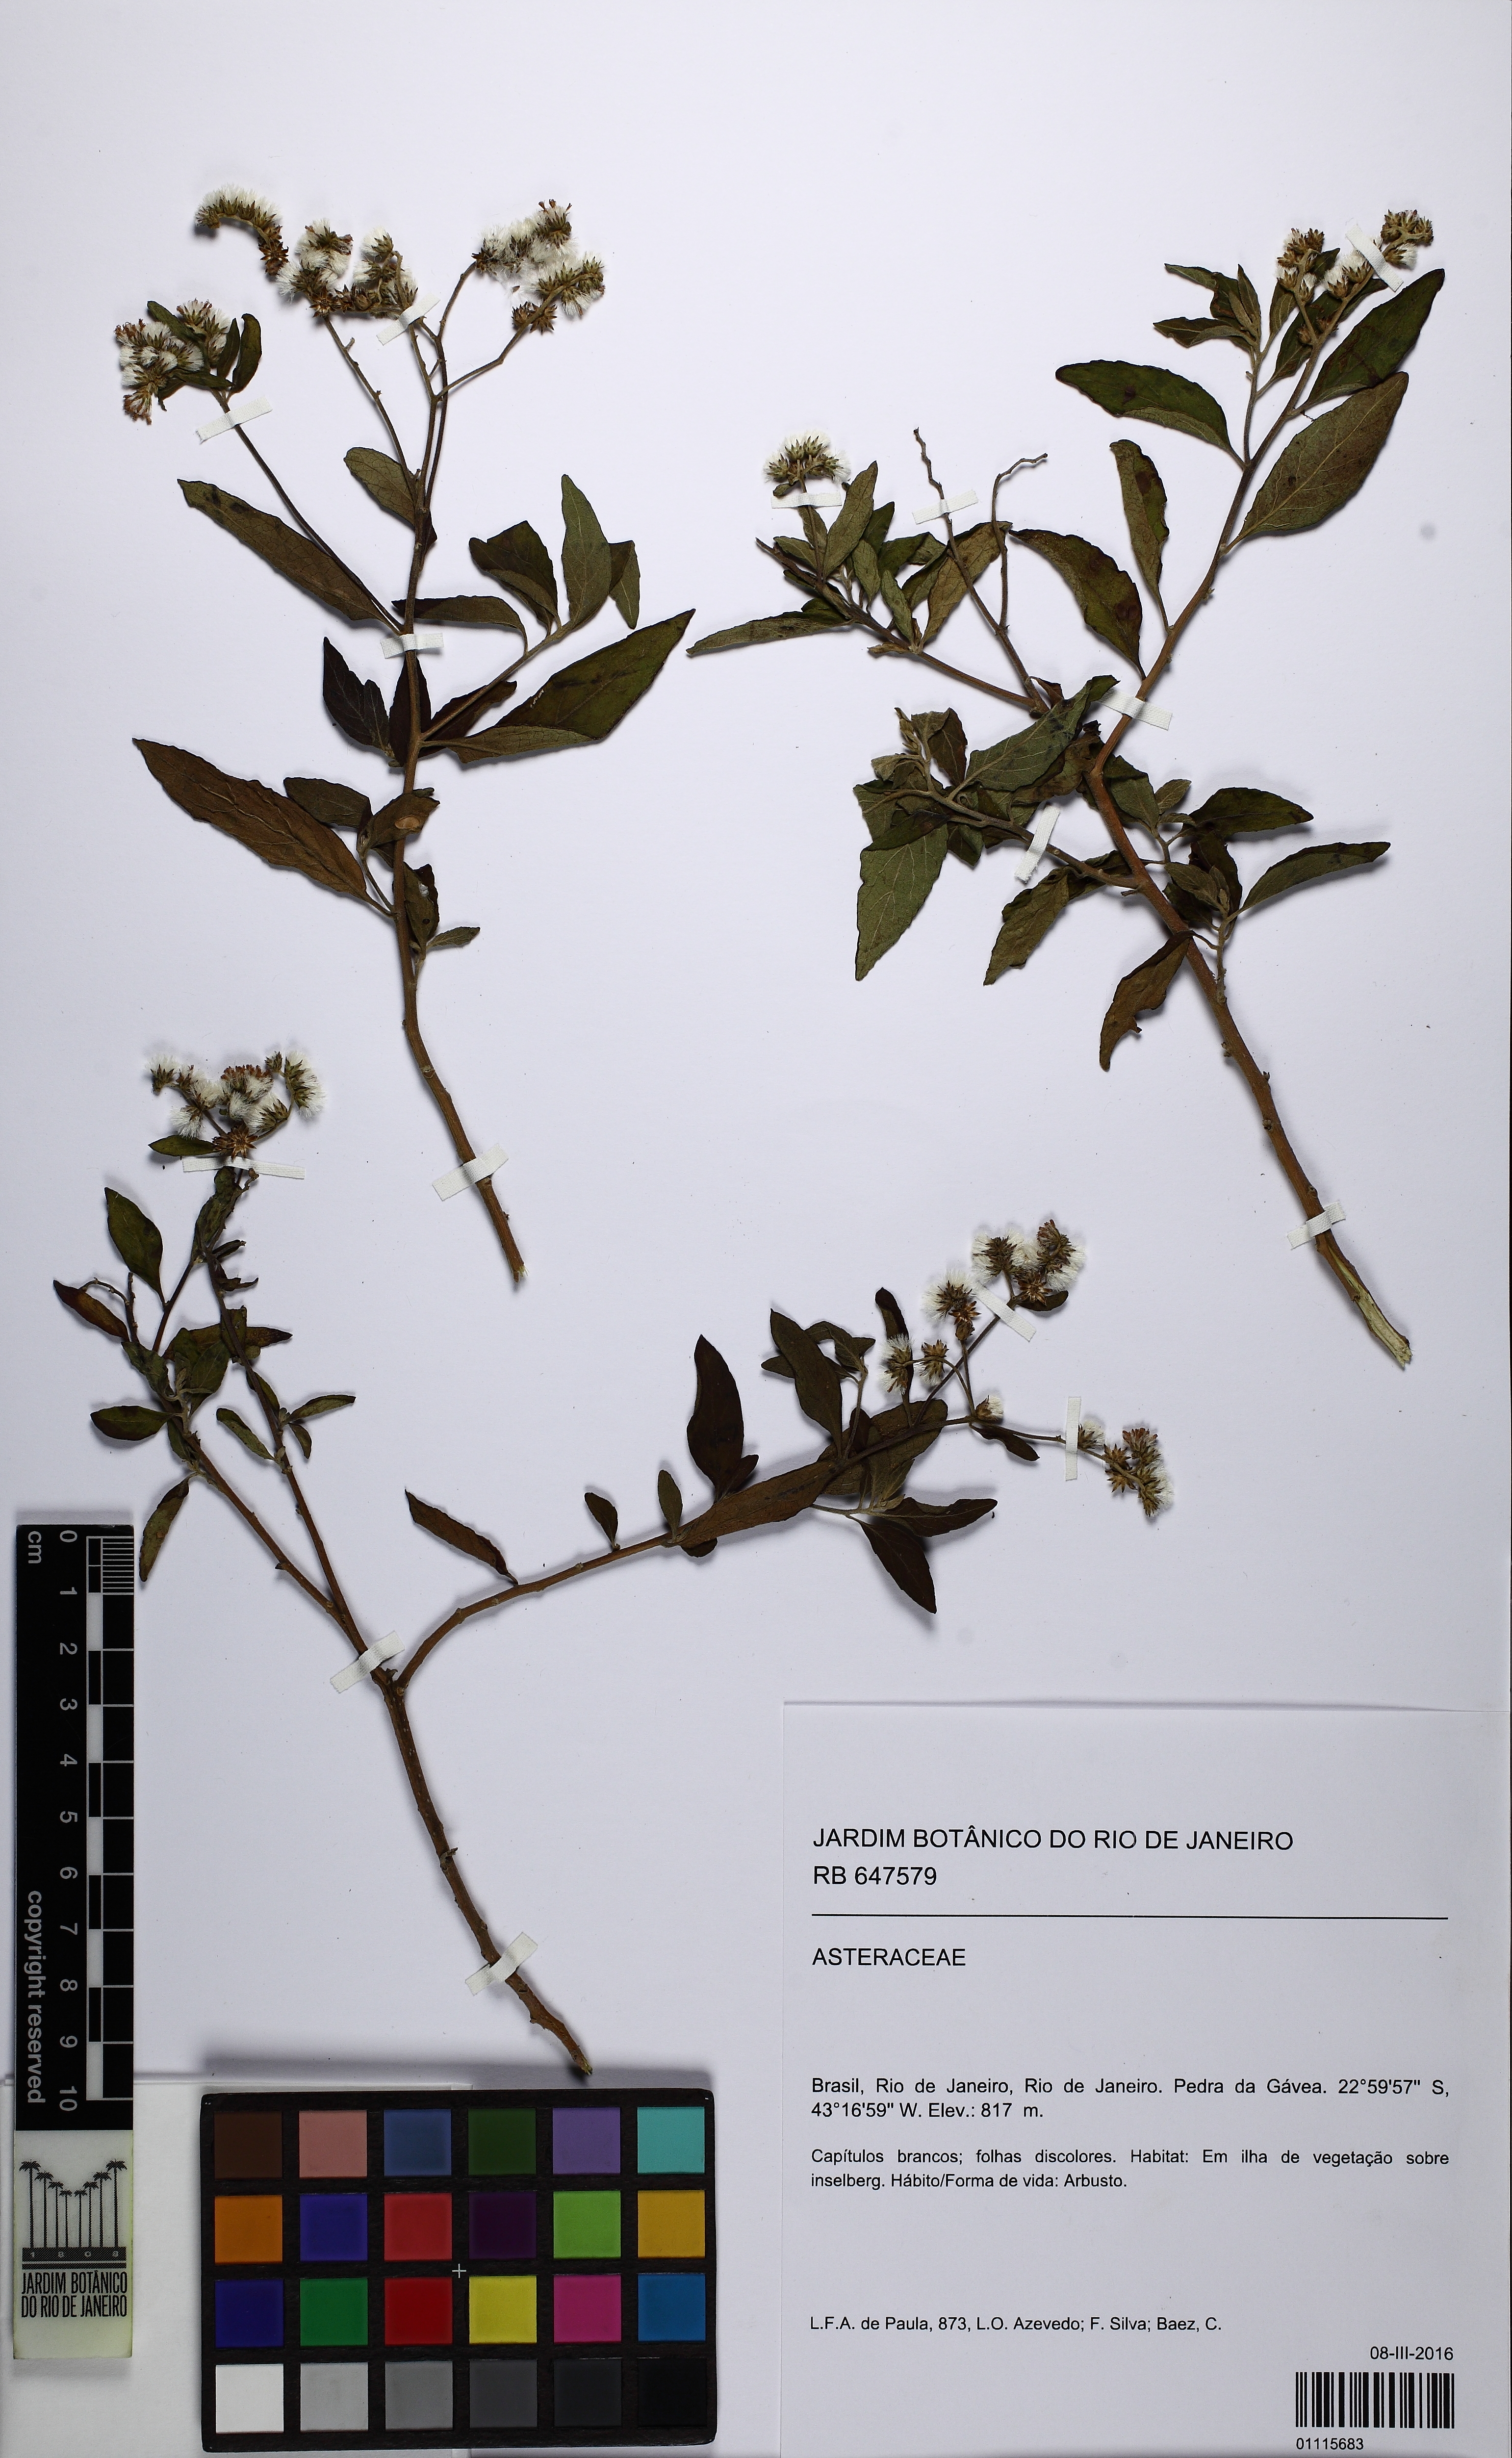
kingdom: Plantae
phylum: Tracheophyta
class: Magnoliopsida
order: Asterales
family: Asteraceae
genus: Cyrtocymura
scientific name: Cyrtocymura
